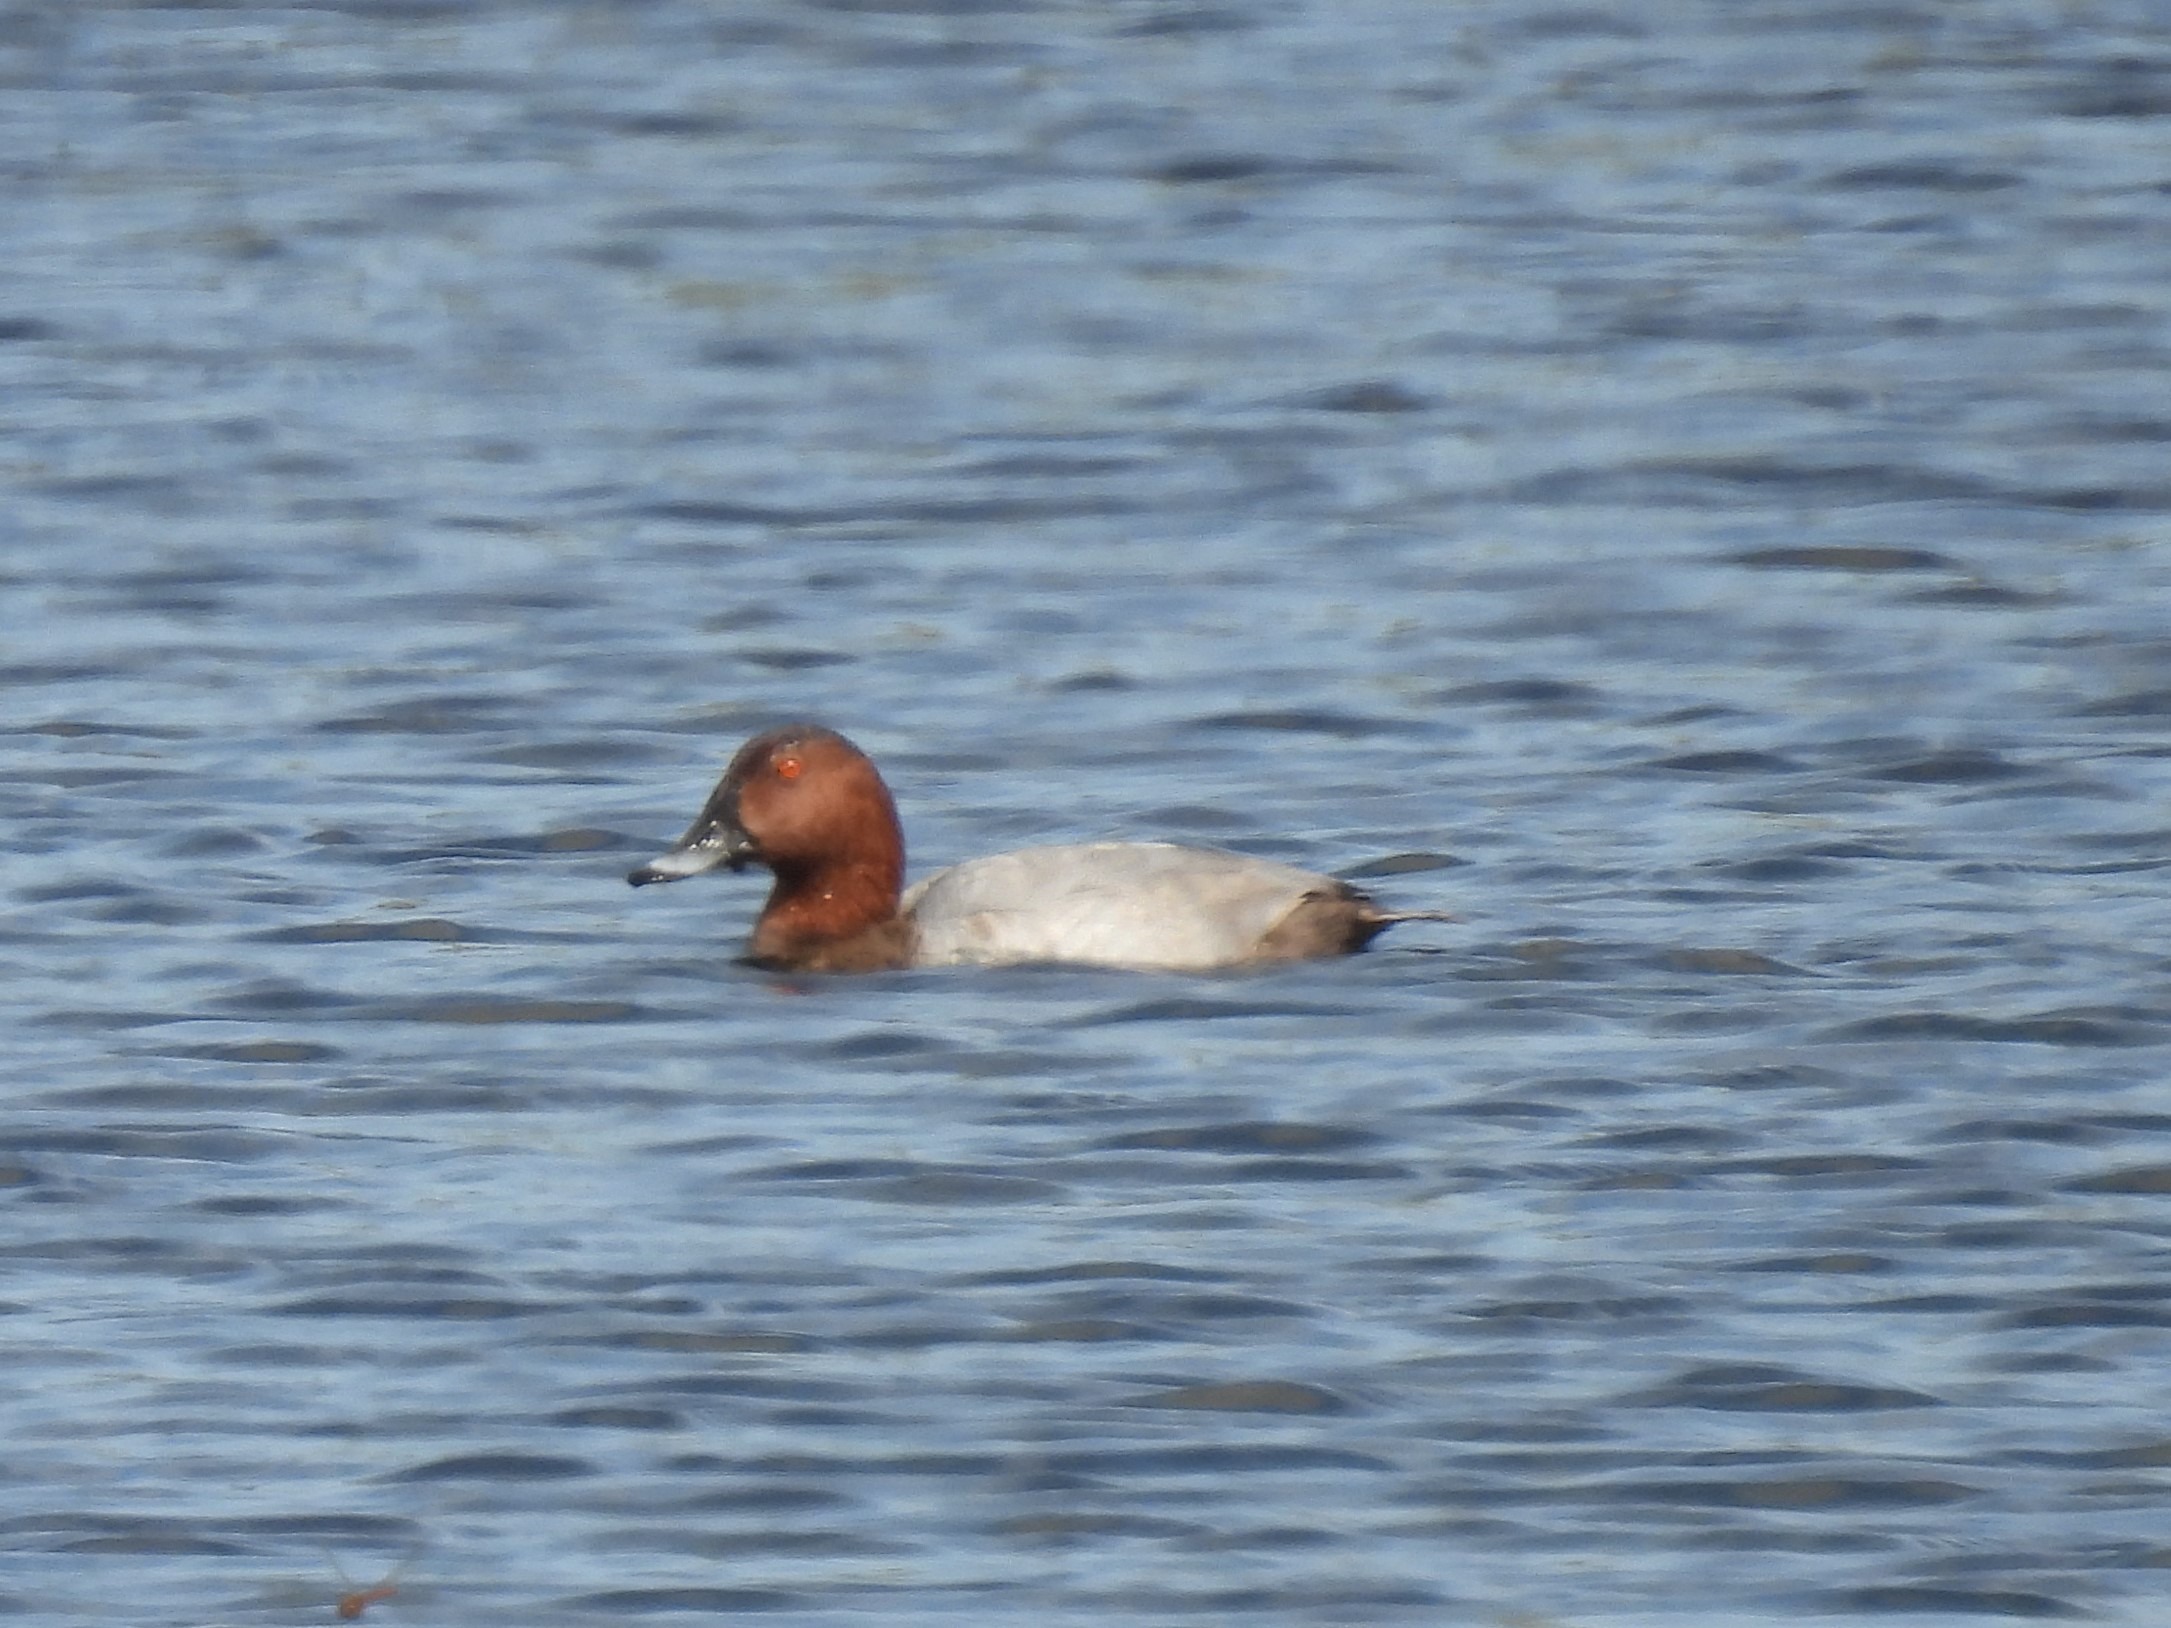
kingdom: Animalia
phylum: Chordata
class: Aves
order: Anseriformes
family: Anatidae
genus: Aythya
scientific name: Aythya ferina
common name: Taffeland
